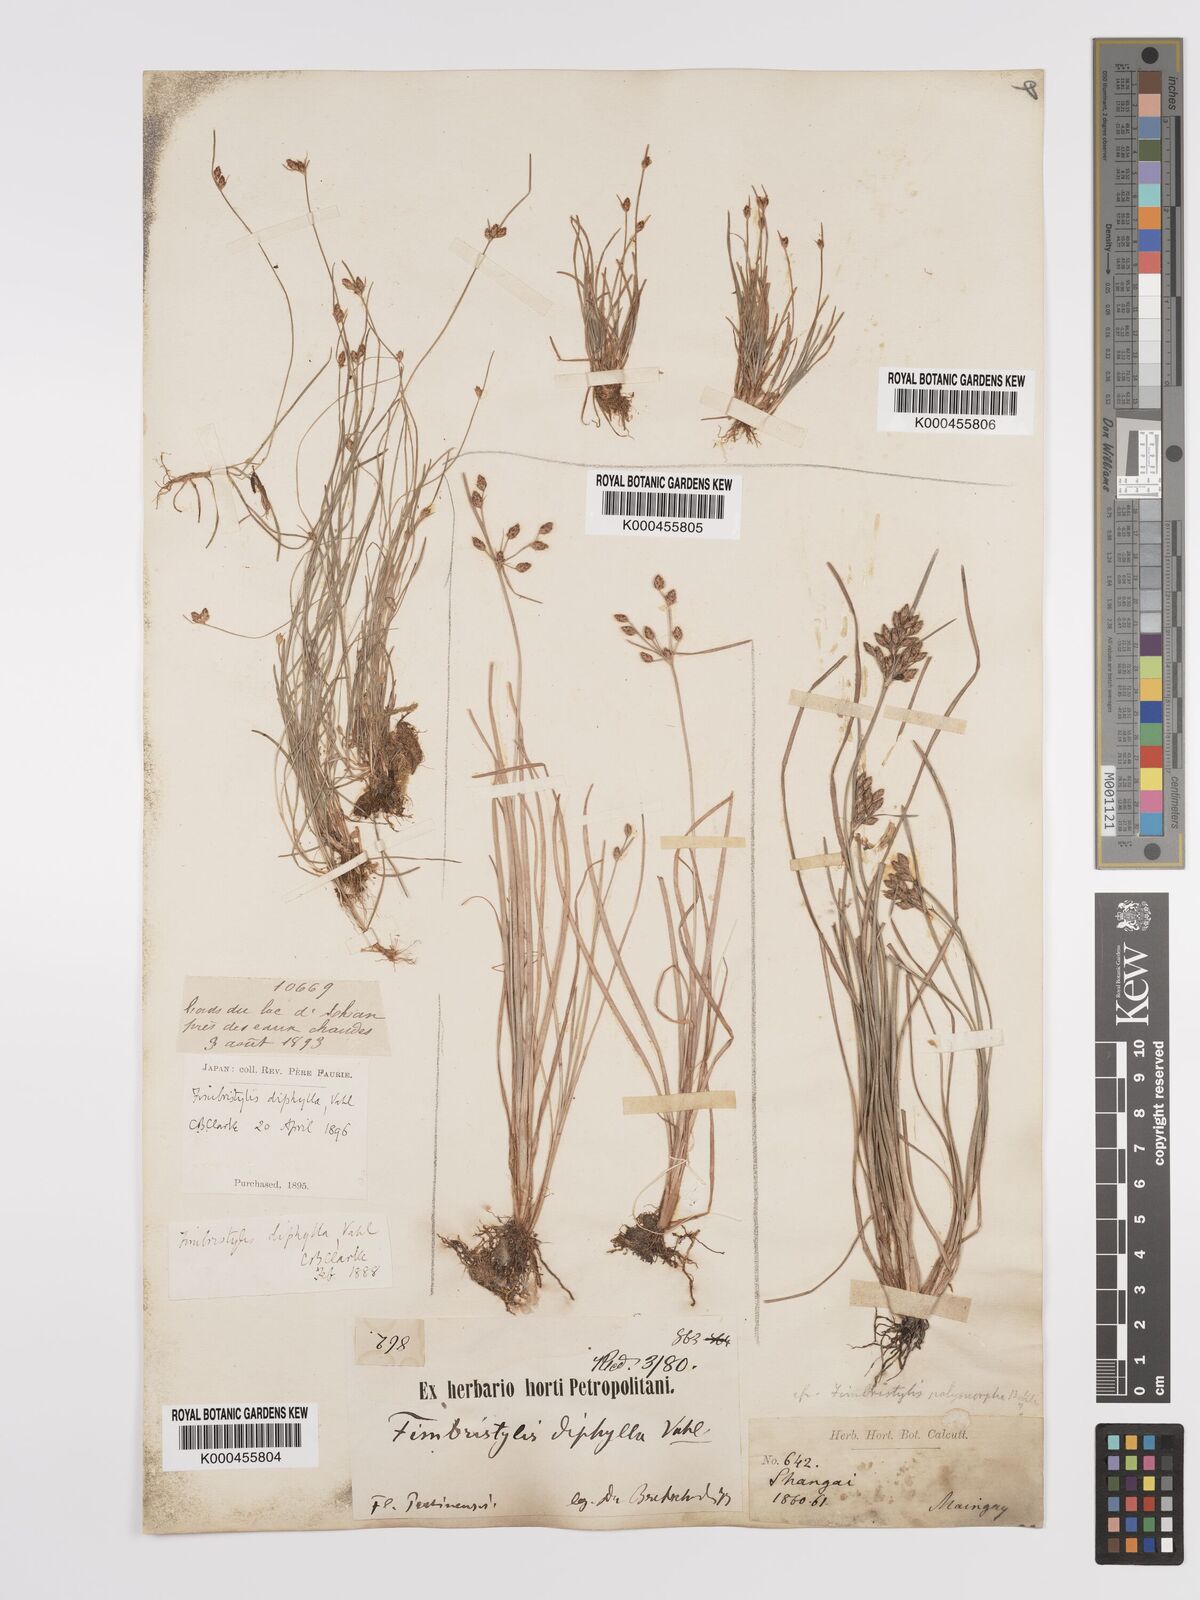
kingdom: Plantae
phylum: Tracheophyta
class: Liliopsida
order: Poales
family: Cyperaceae
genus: Fimbristylis
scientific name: Fimbristylis dichotoma
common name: Forked fimbry
